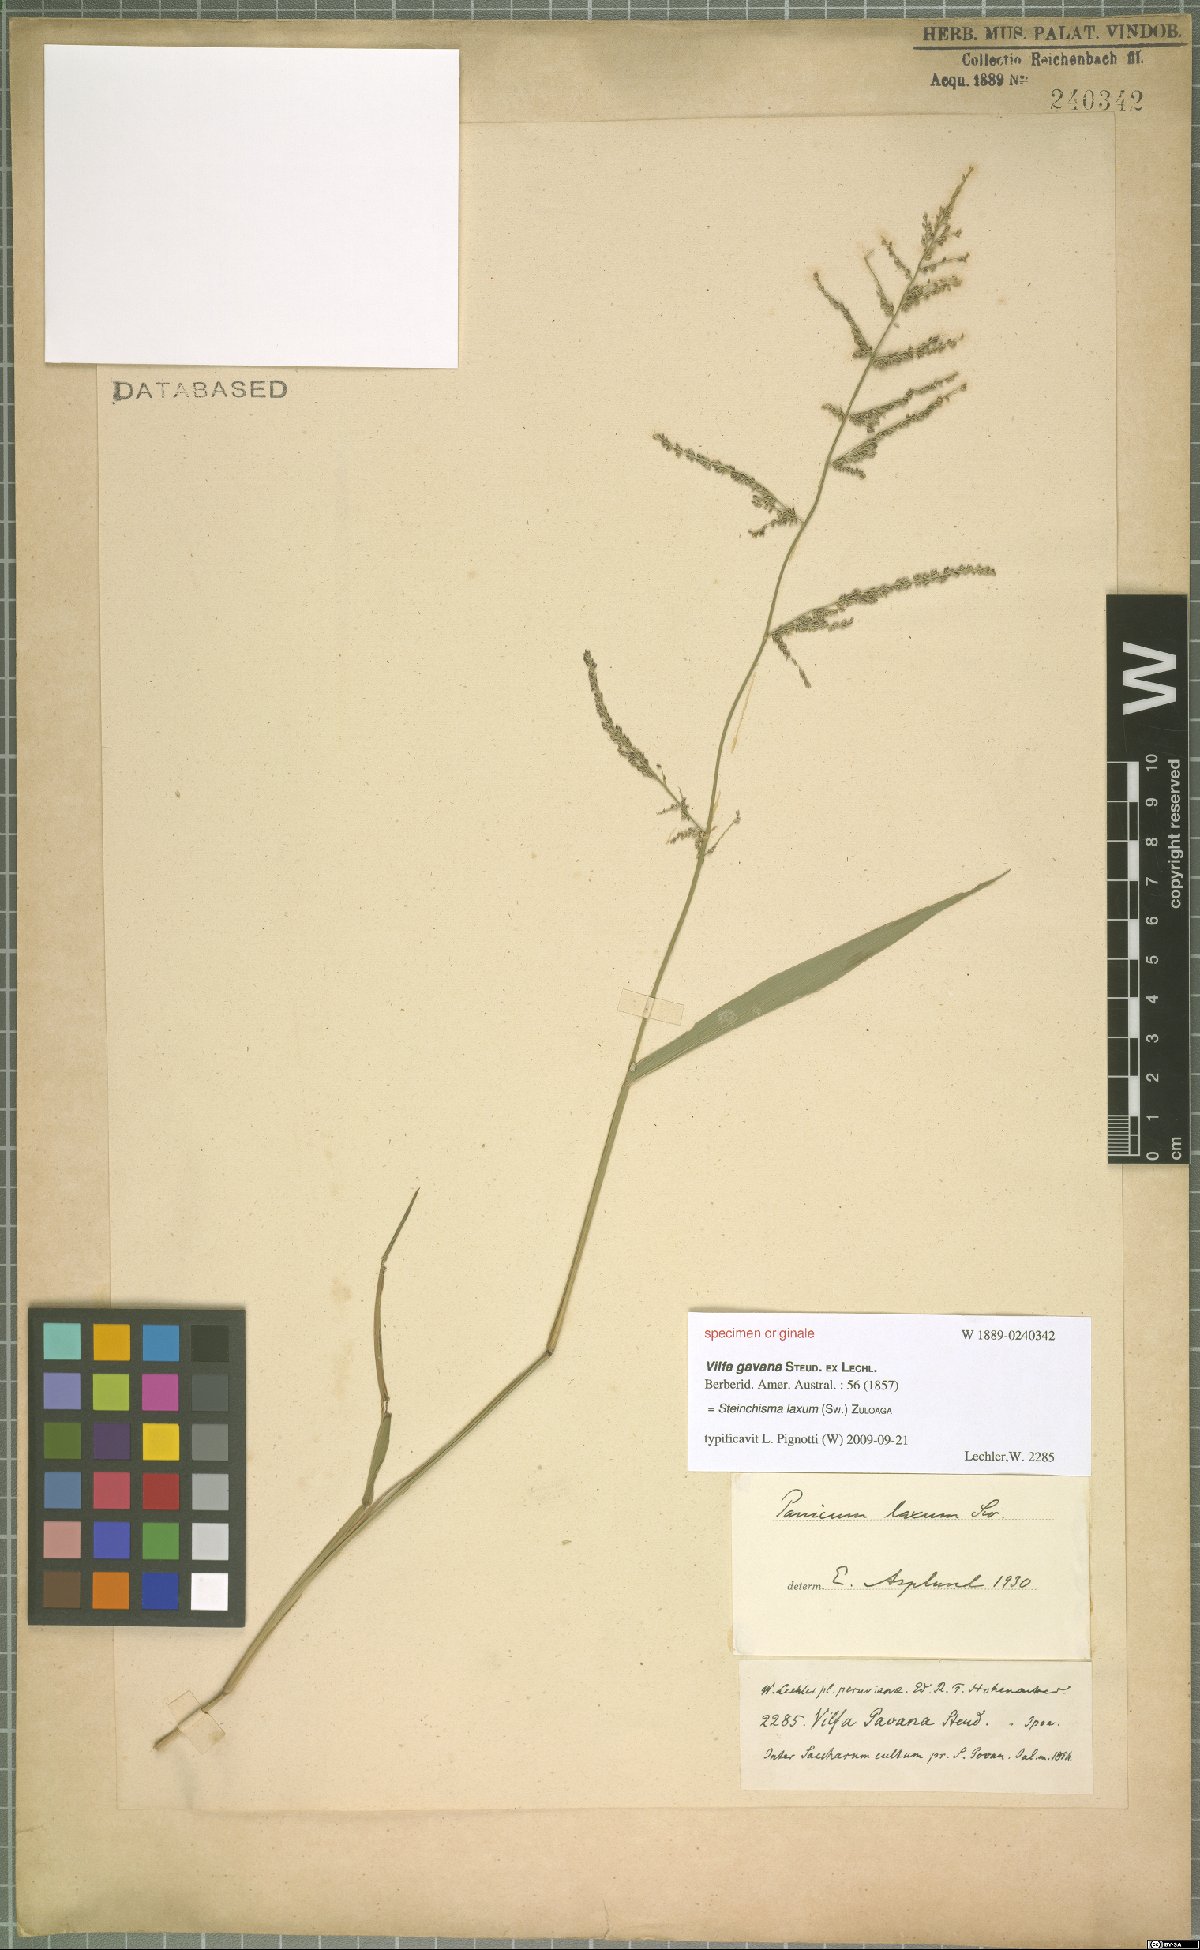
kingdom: Plantae
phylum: Tracheophyta
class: Liliopsida
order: Poales
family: Poaceae
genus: Steinchisma
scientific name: Steinchisma laxum
